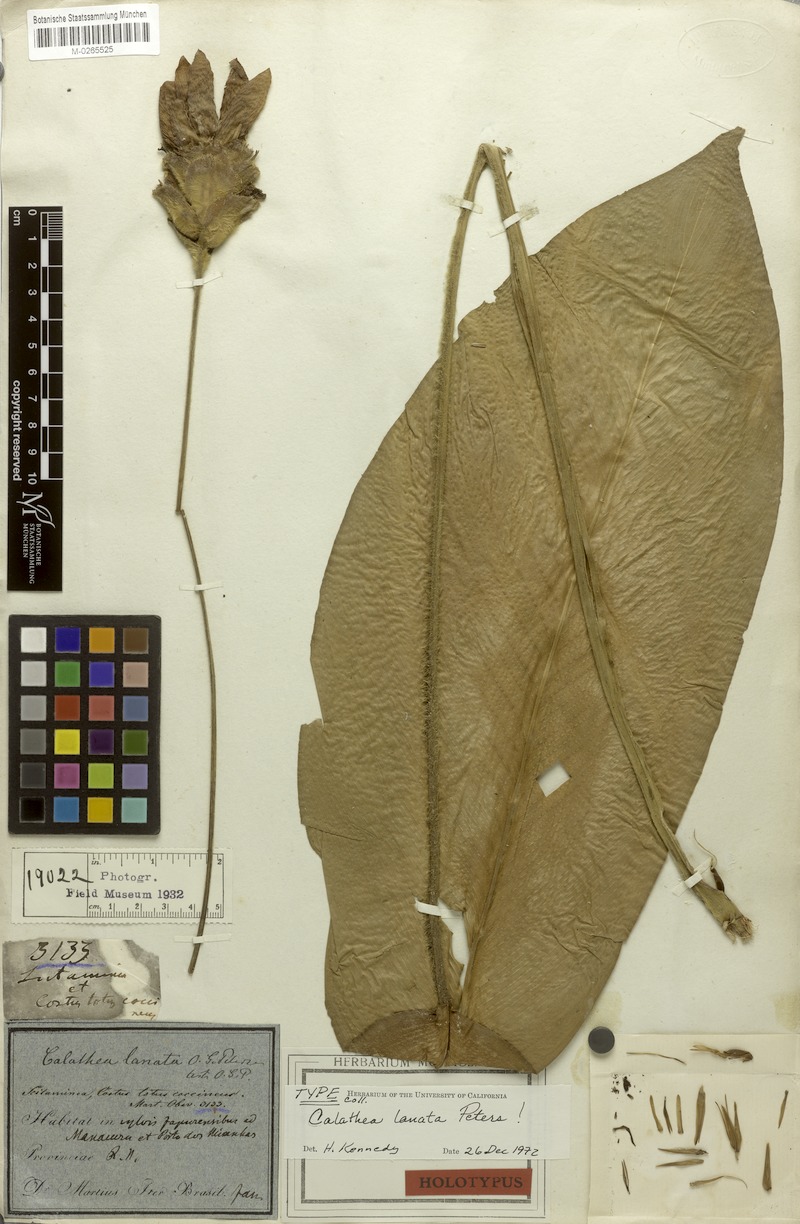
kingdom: Plantae
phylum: Tracheophyta
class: Liliopsida
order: Zingiberales
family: Marantaceae
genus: Goeppertia
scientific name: Goeppertia lanata
